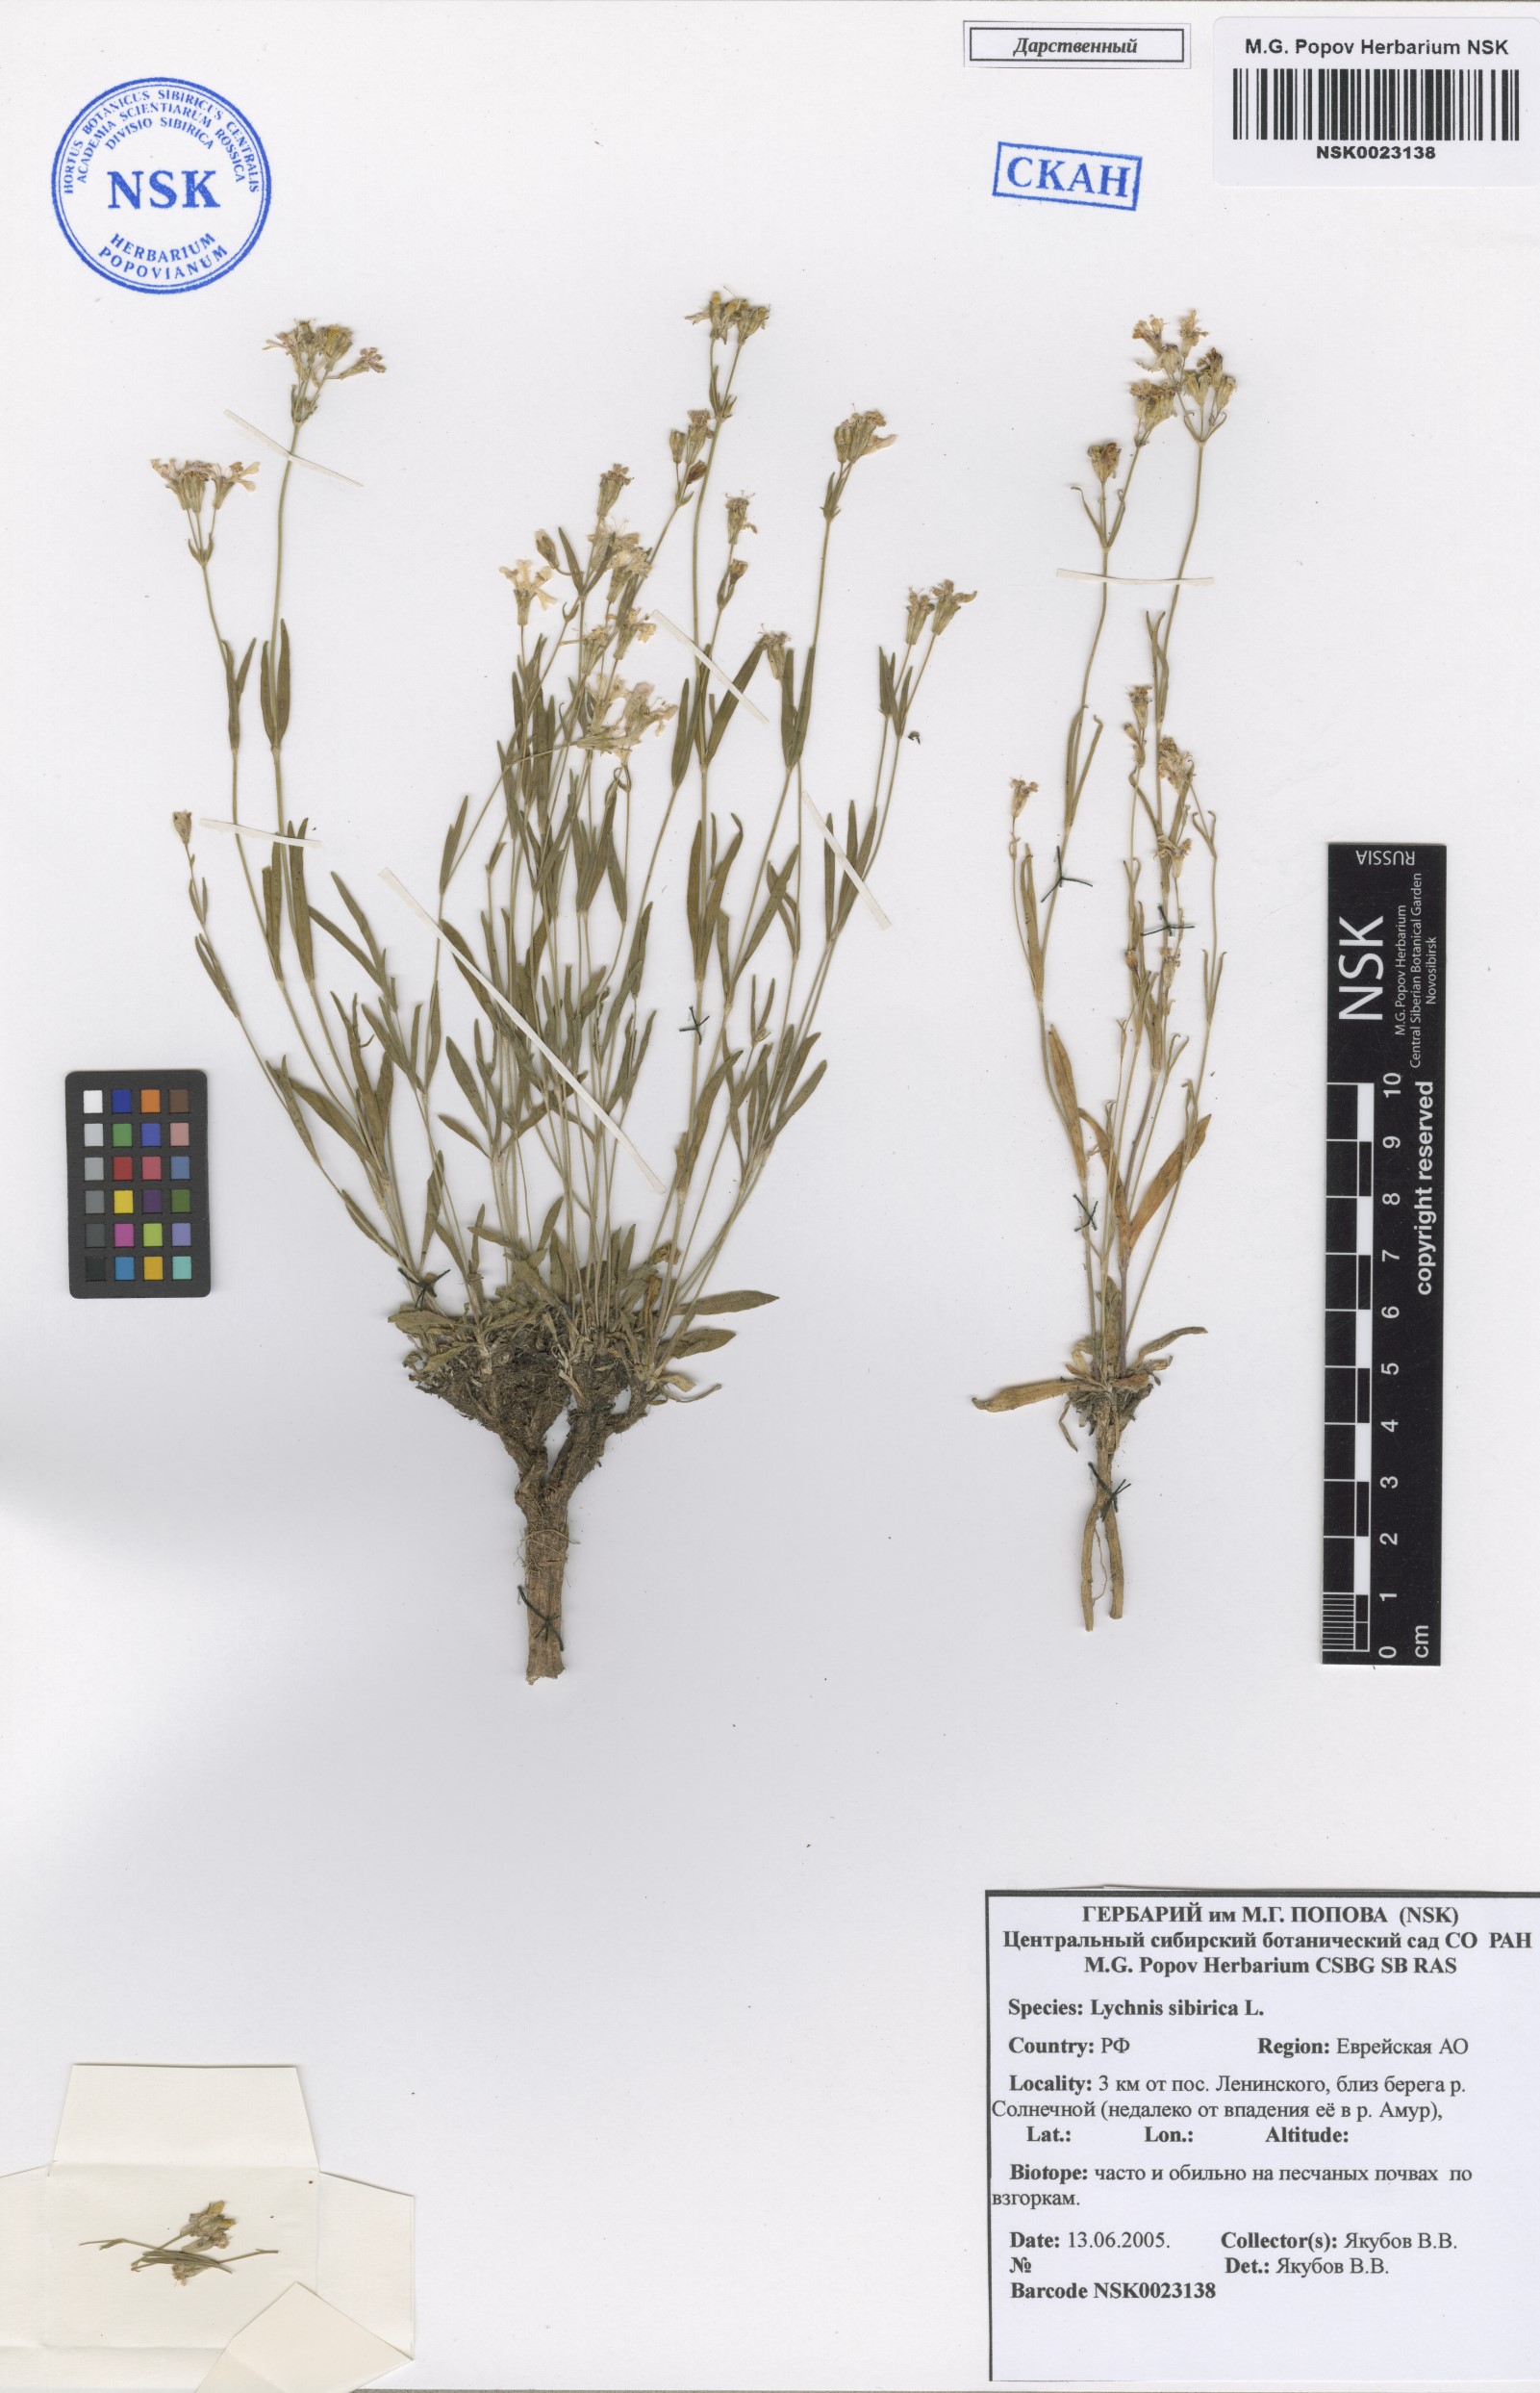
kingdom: Plantae
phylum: Tracheophyta
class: Magnoliopsida
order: Caryophyllales
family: Caryophyllaceae
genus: Silene
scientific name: Silene orientalimongolica
